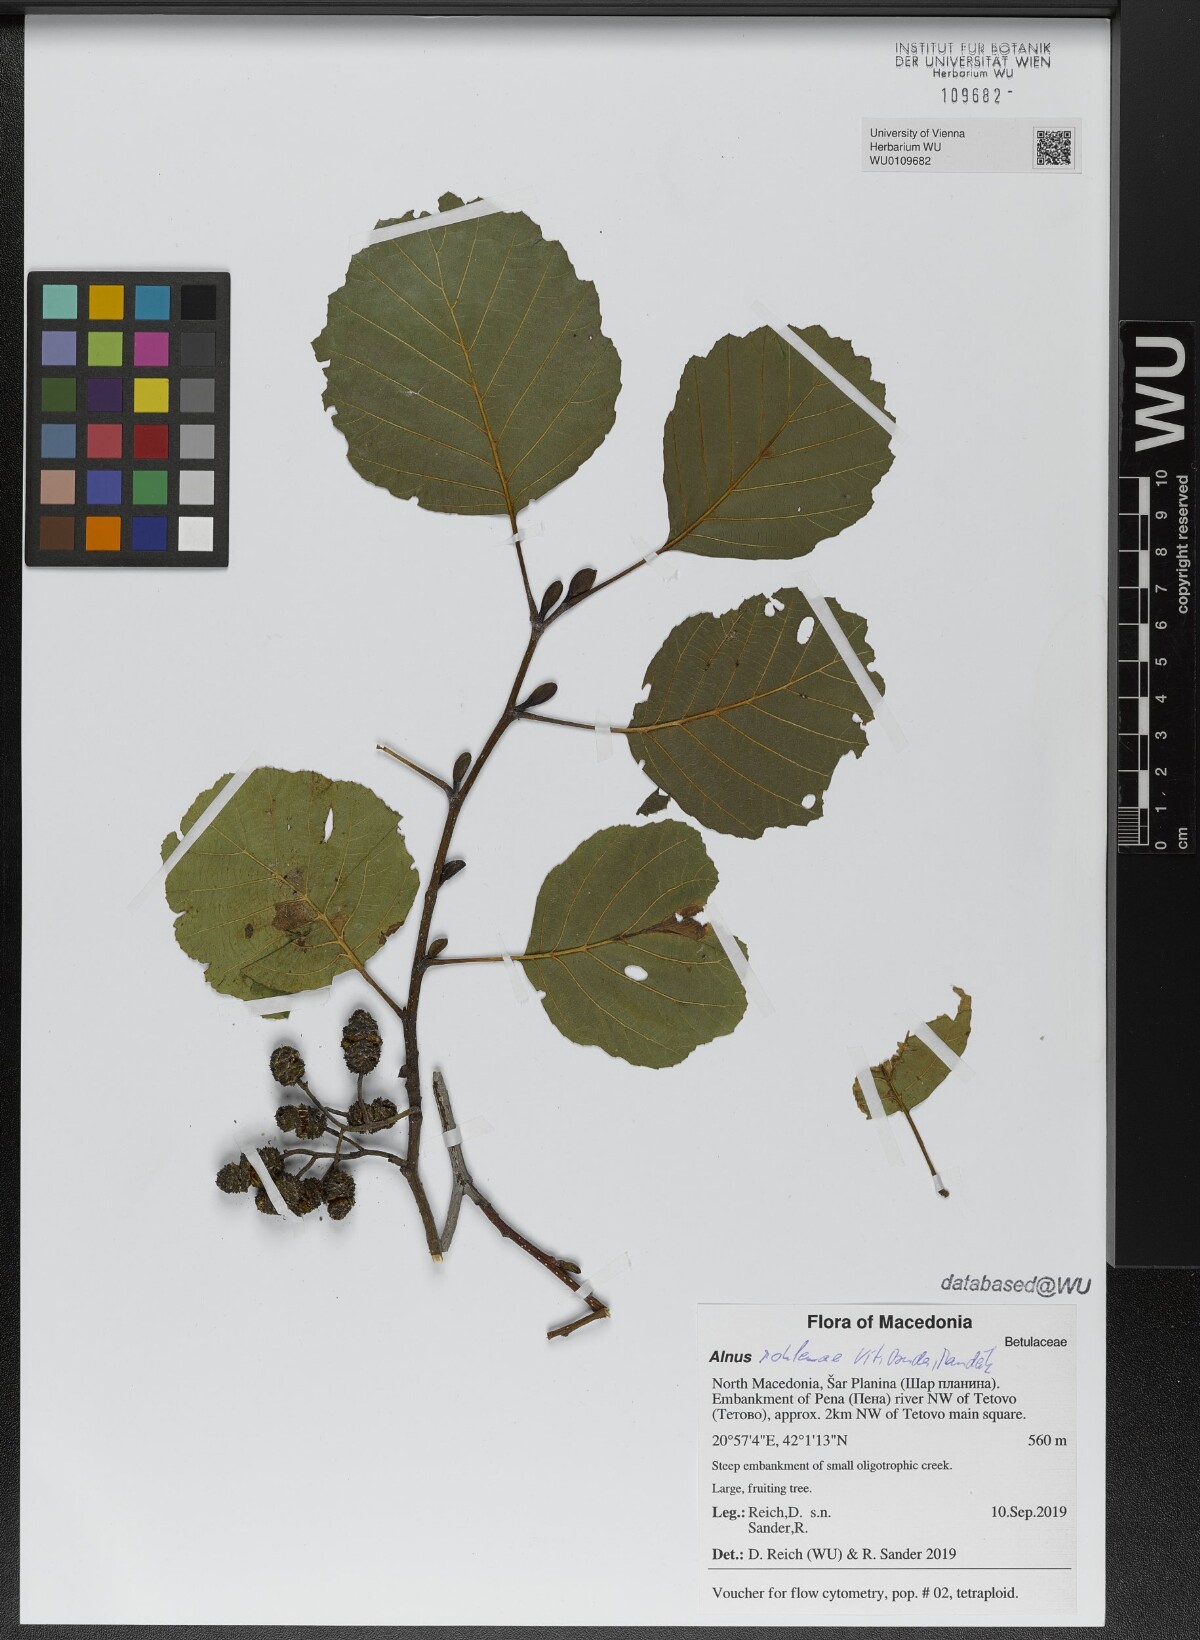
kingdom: Plantae
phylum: Tracheophyta
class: Magnoliopsida
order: Fagales
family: Betulaceae
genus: Alnus
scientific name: Alnus rohlenae
